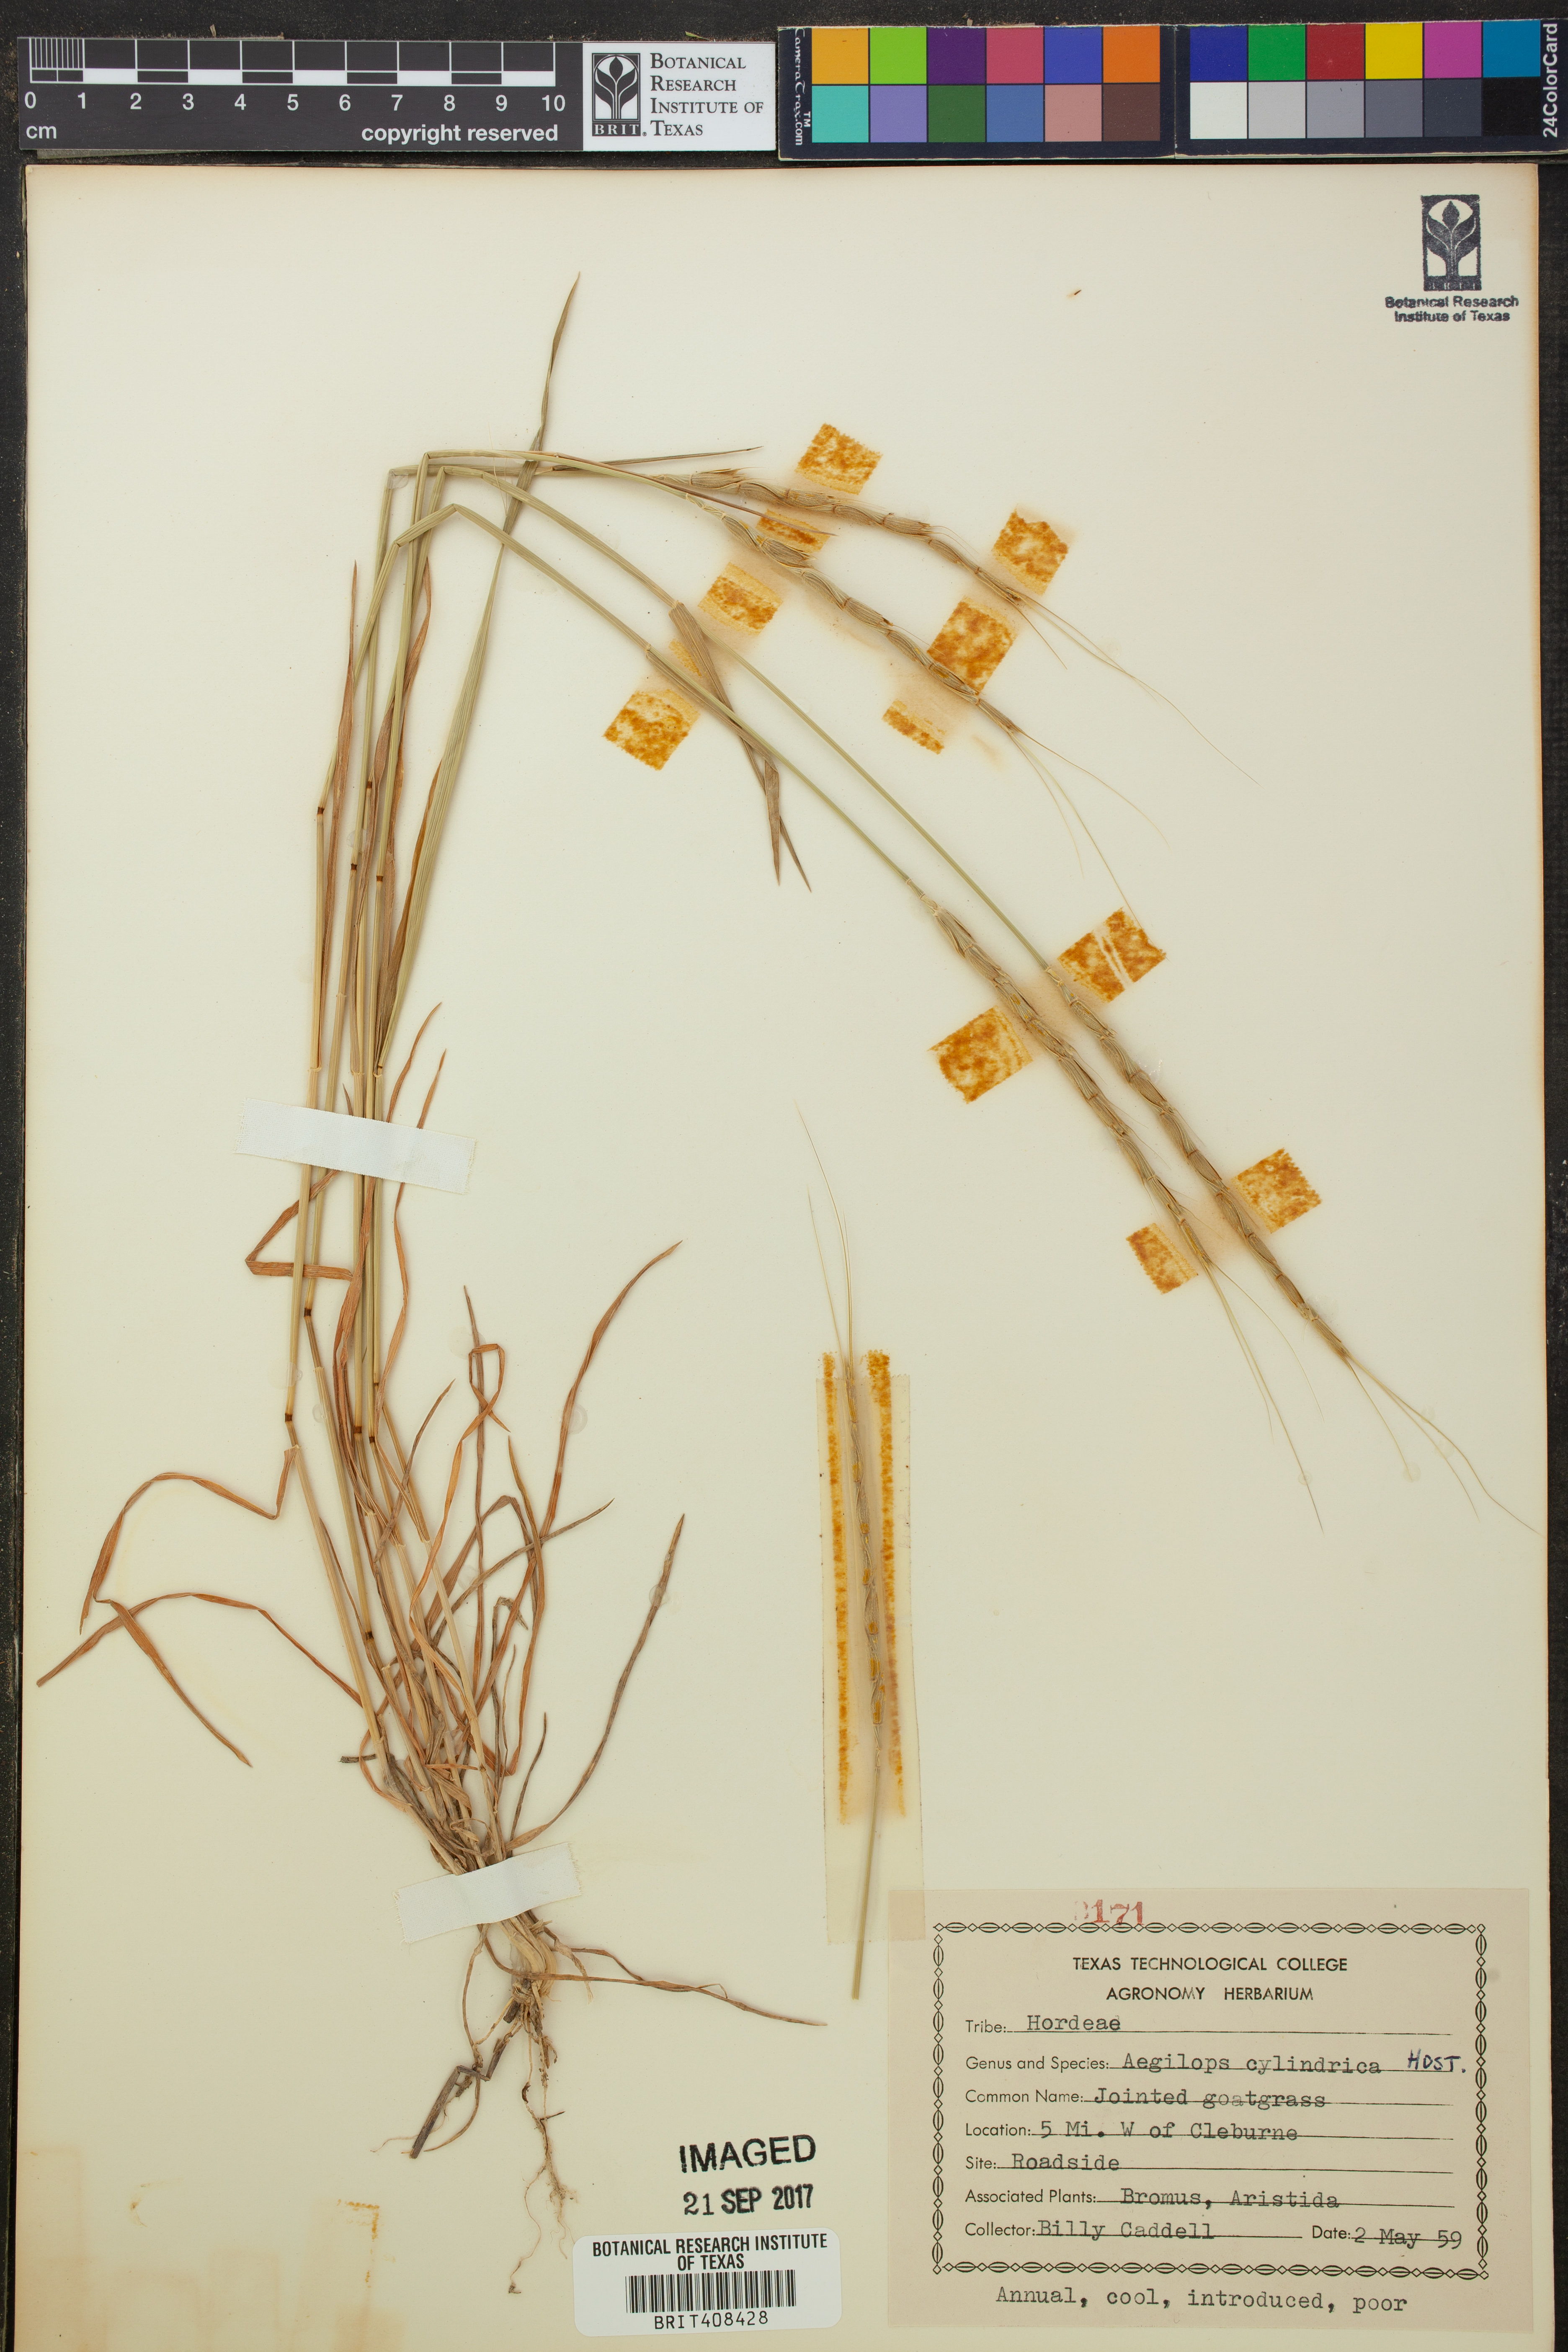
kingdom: Plantae
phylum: Tracheophyta
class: Liliopsida
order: Poales
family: Poaceae
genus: Aegilops
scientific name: Aegilops cylindrica
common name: Jointed goatgrass
